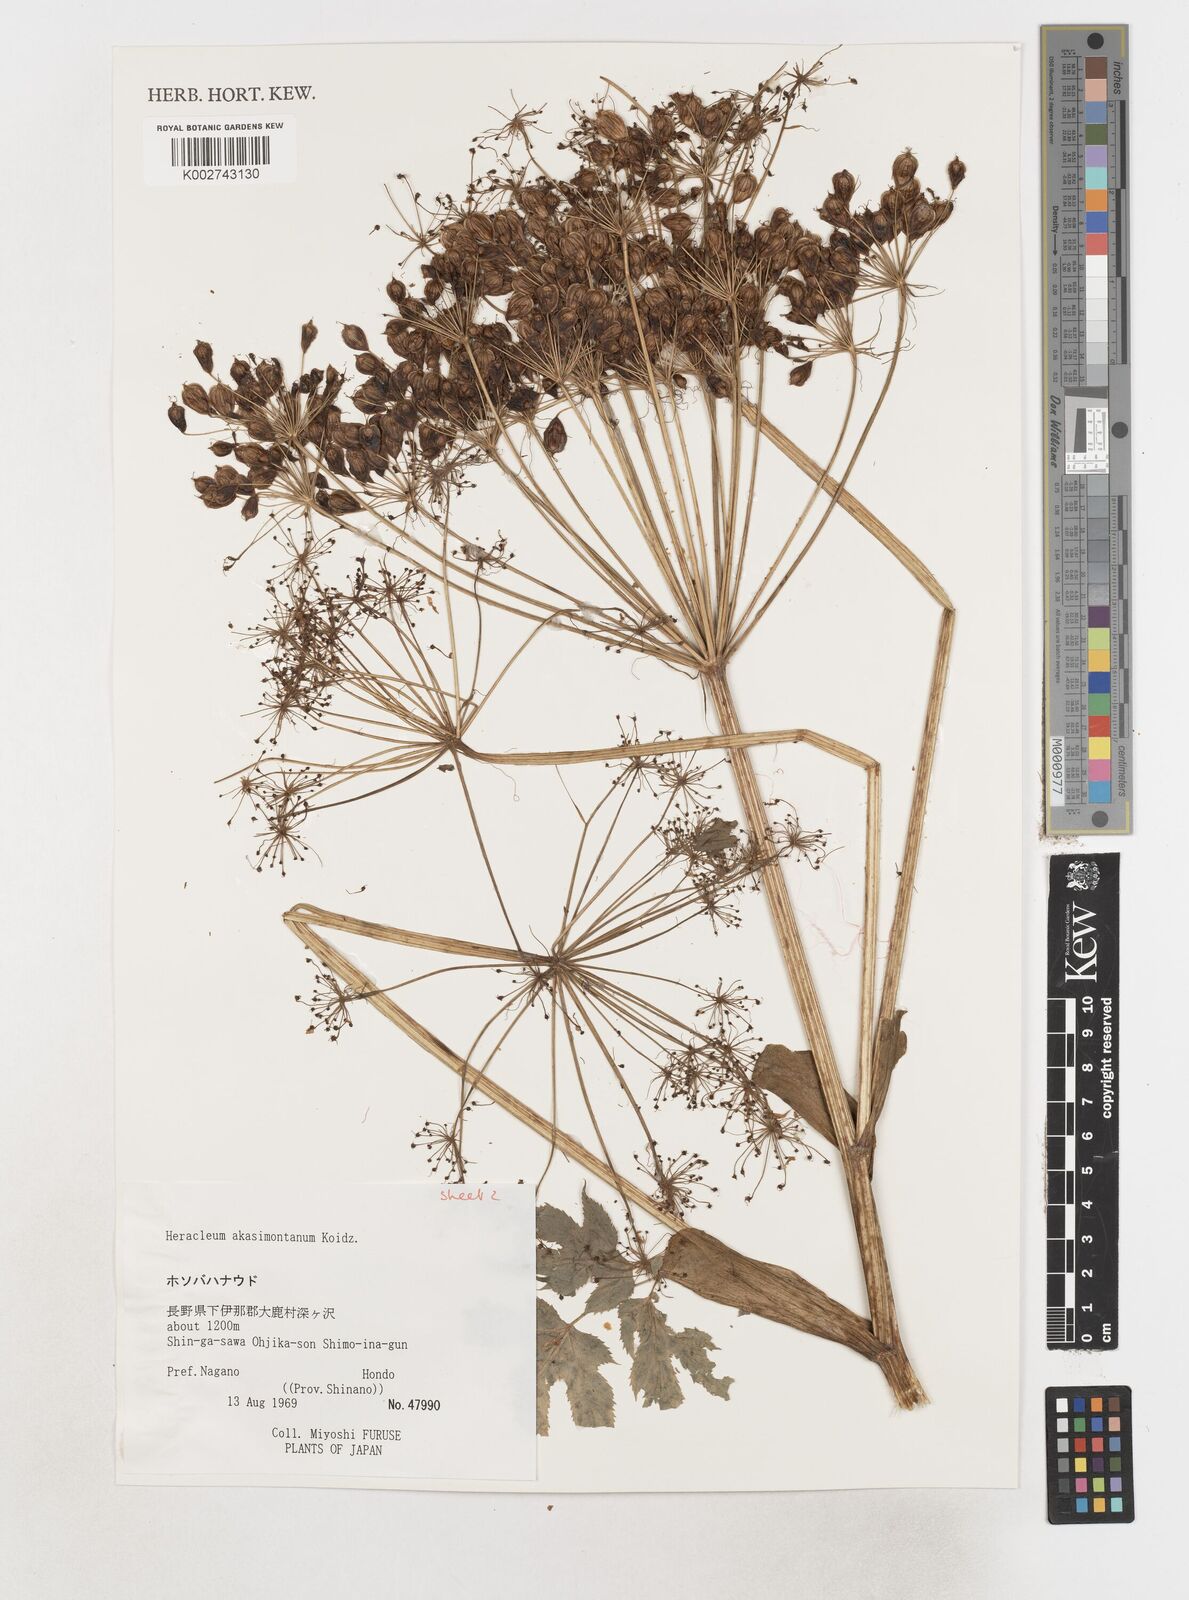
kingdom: Plantae
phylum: Tracheophyta
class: Magnoliopsida
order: Apiales
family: Apiaceae
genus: Heracleum
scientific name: Heracleum akasimontanum
